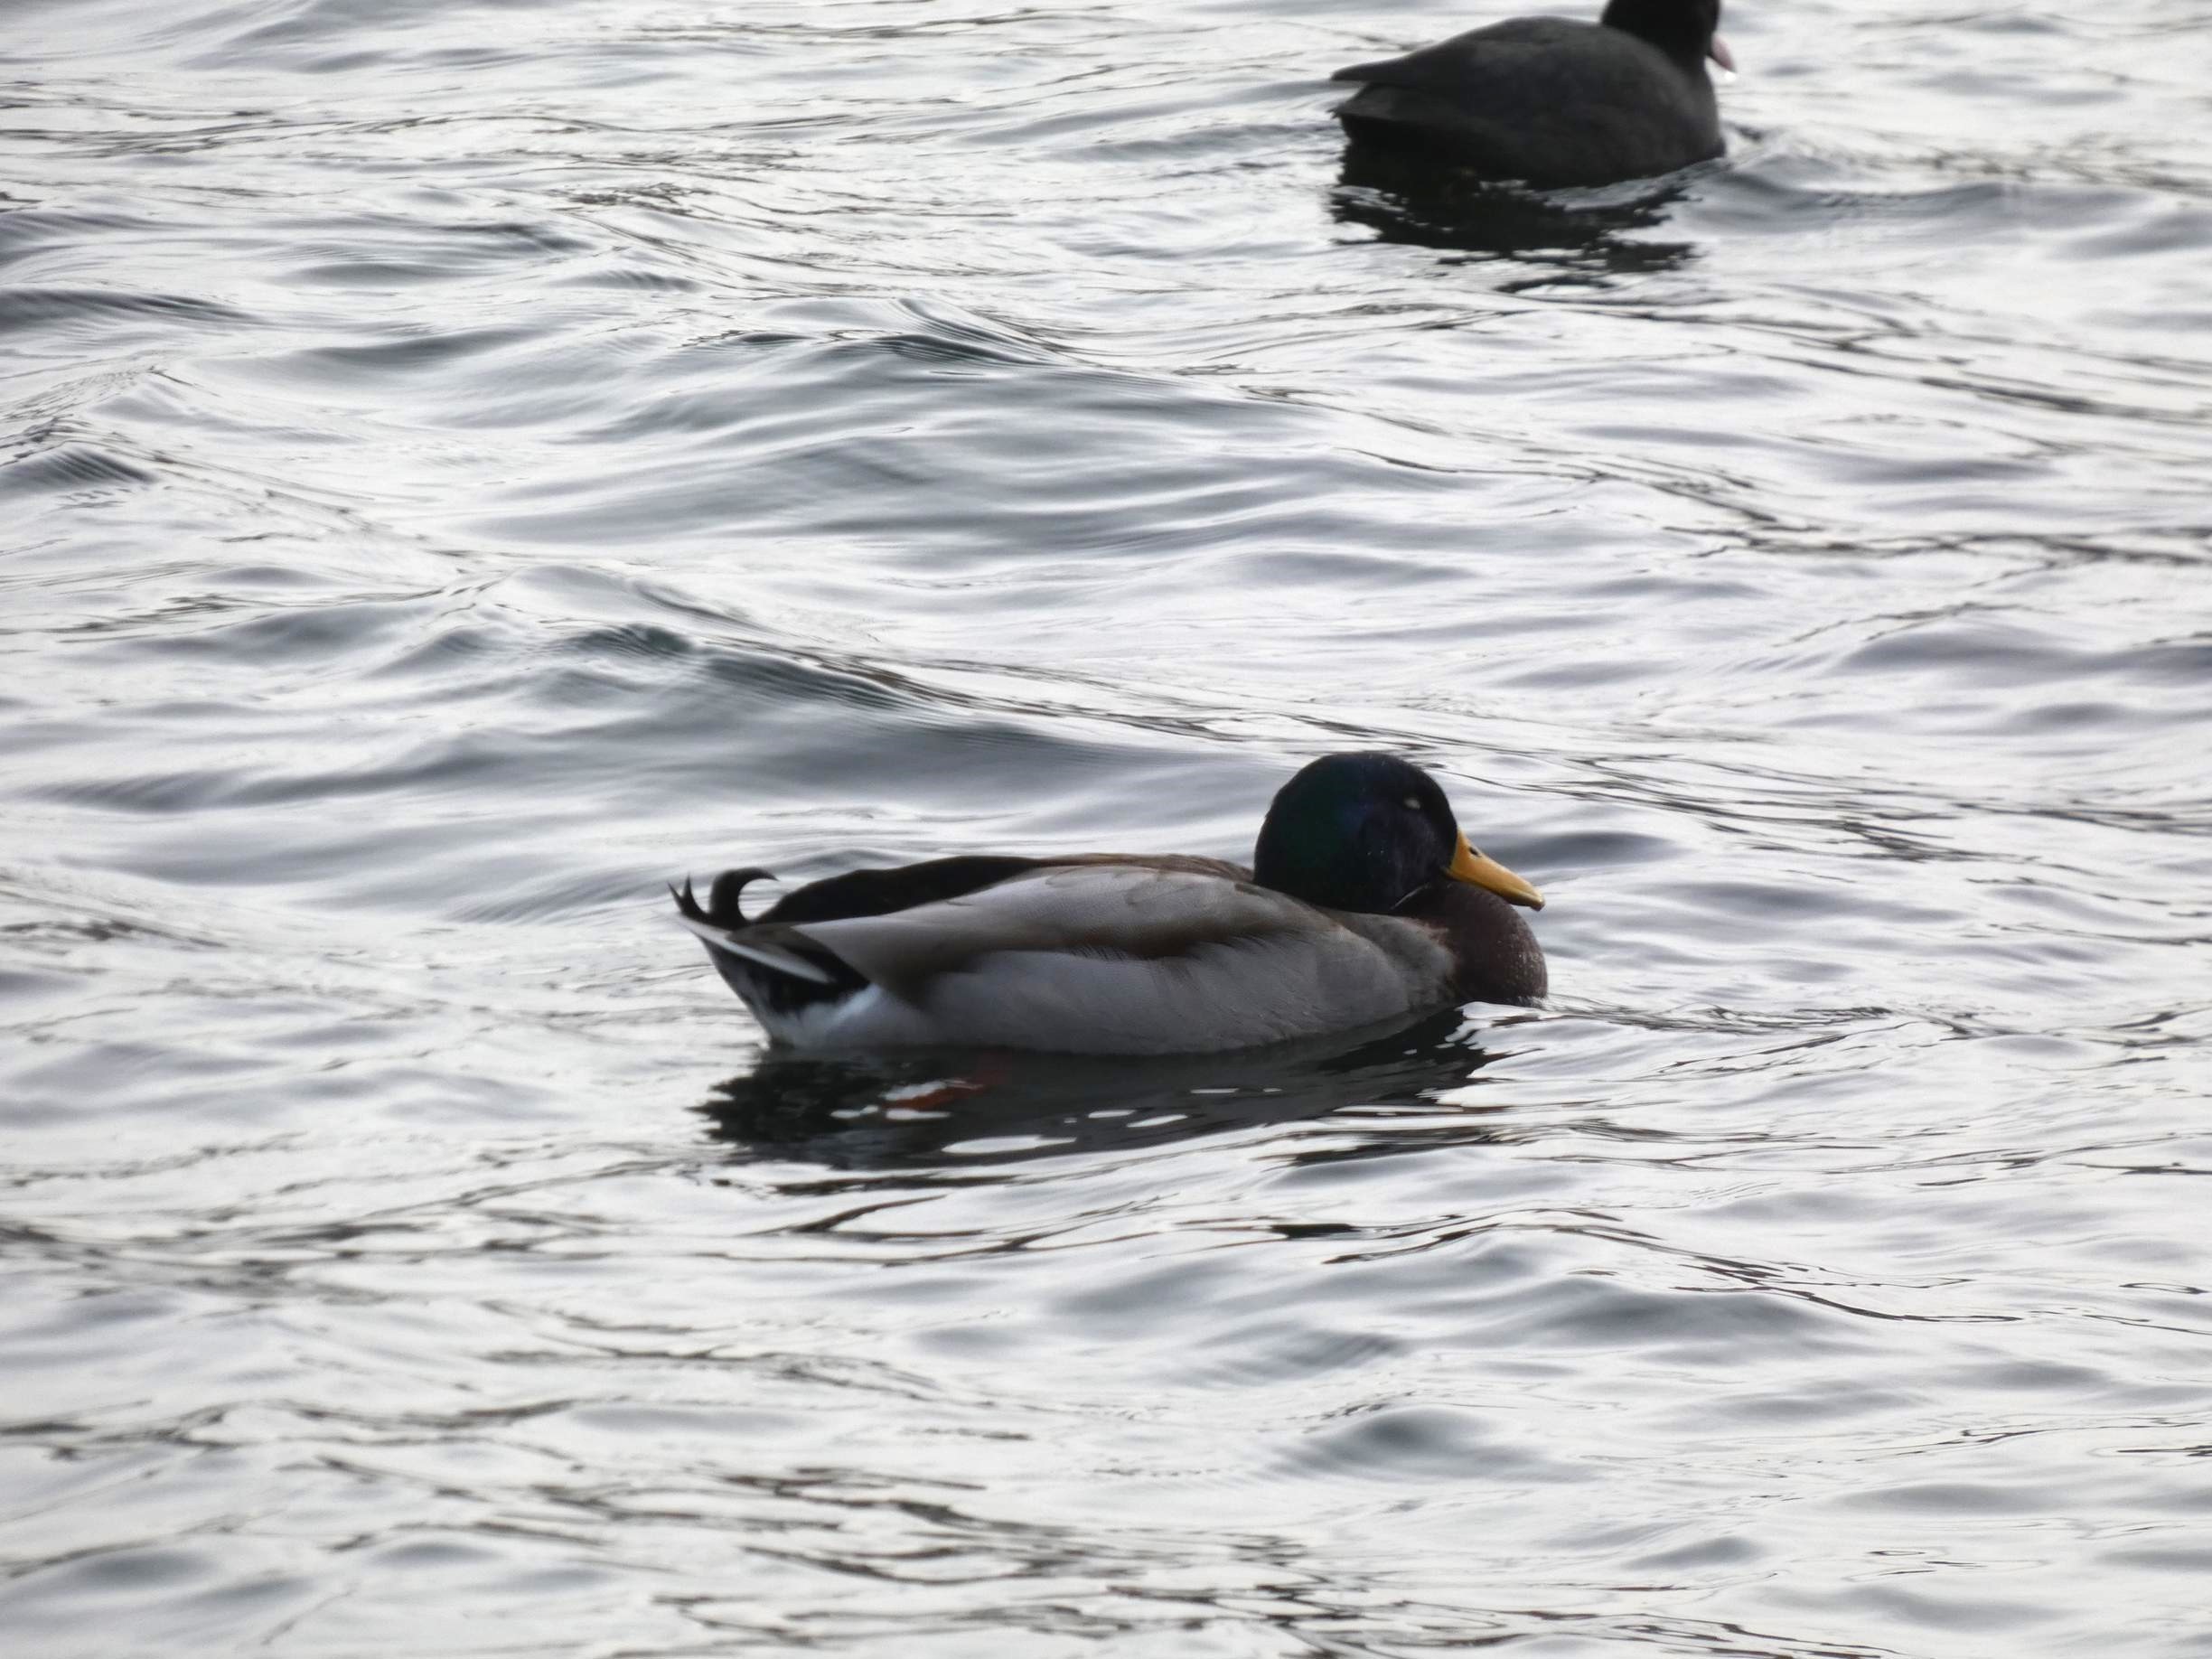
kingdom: Animalia
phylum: Chordata
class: Aves
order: Anseriformes
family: Anatidae
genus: Anas
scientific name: Anas platyrhynchos
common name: Gråand
